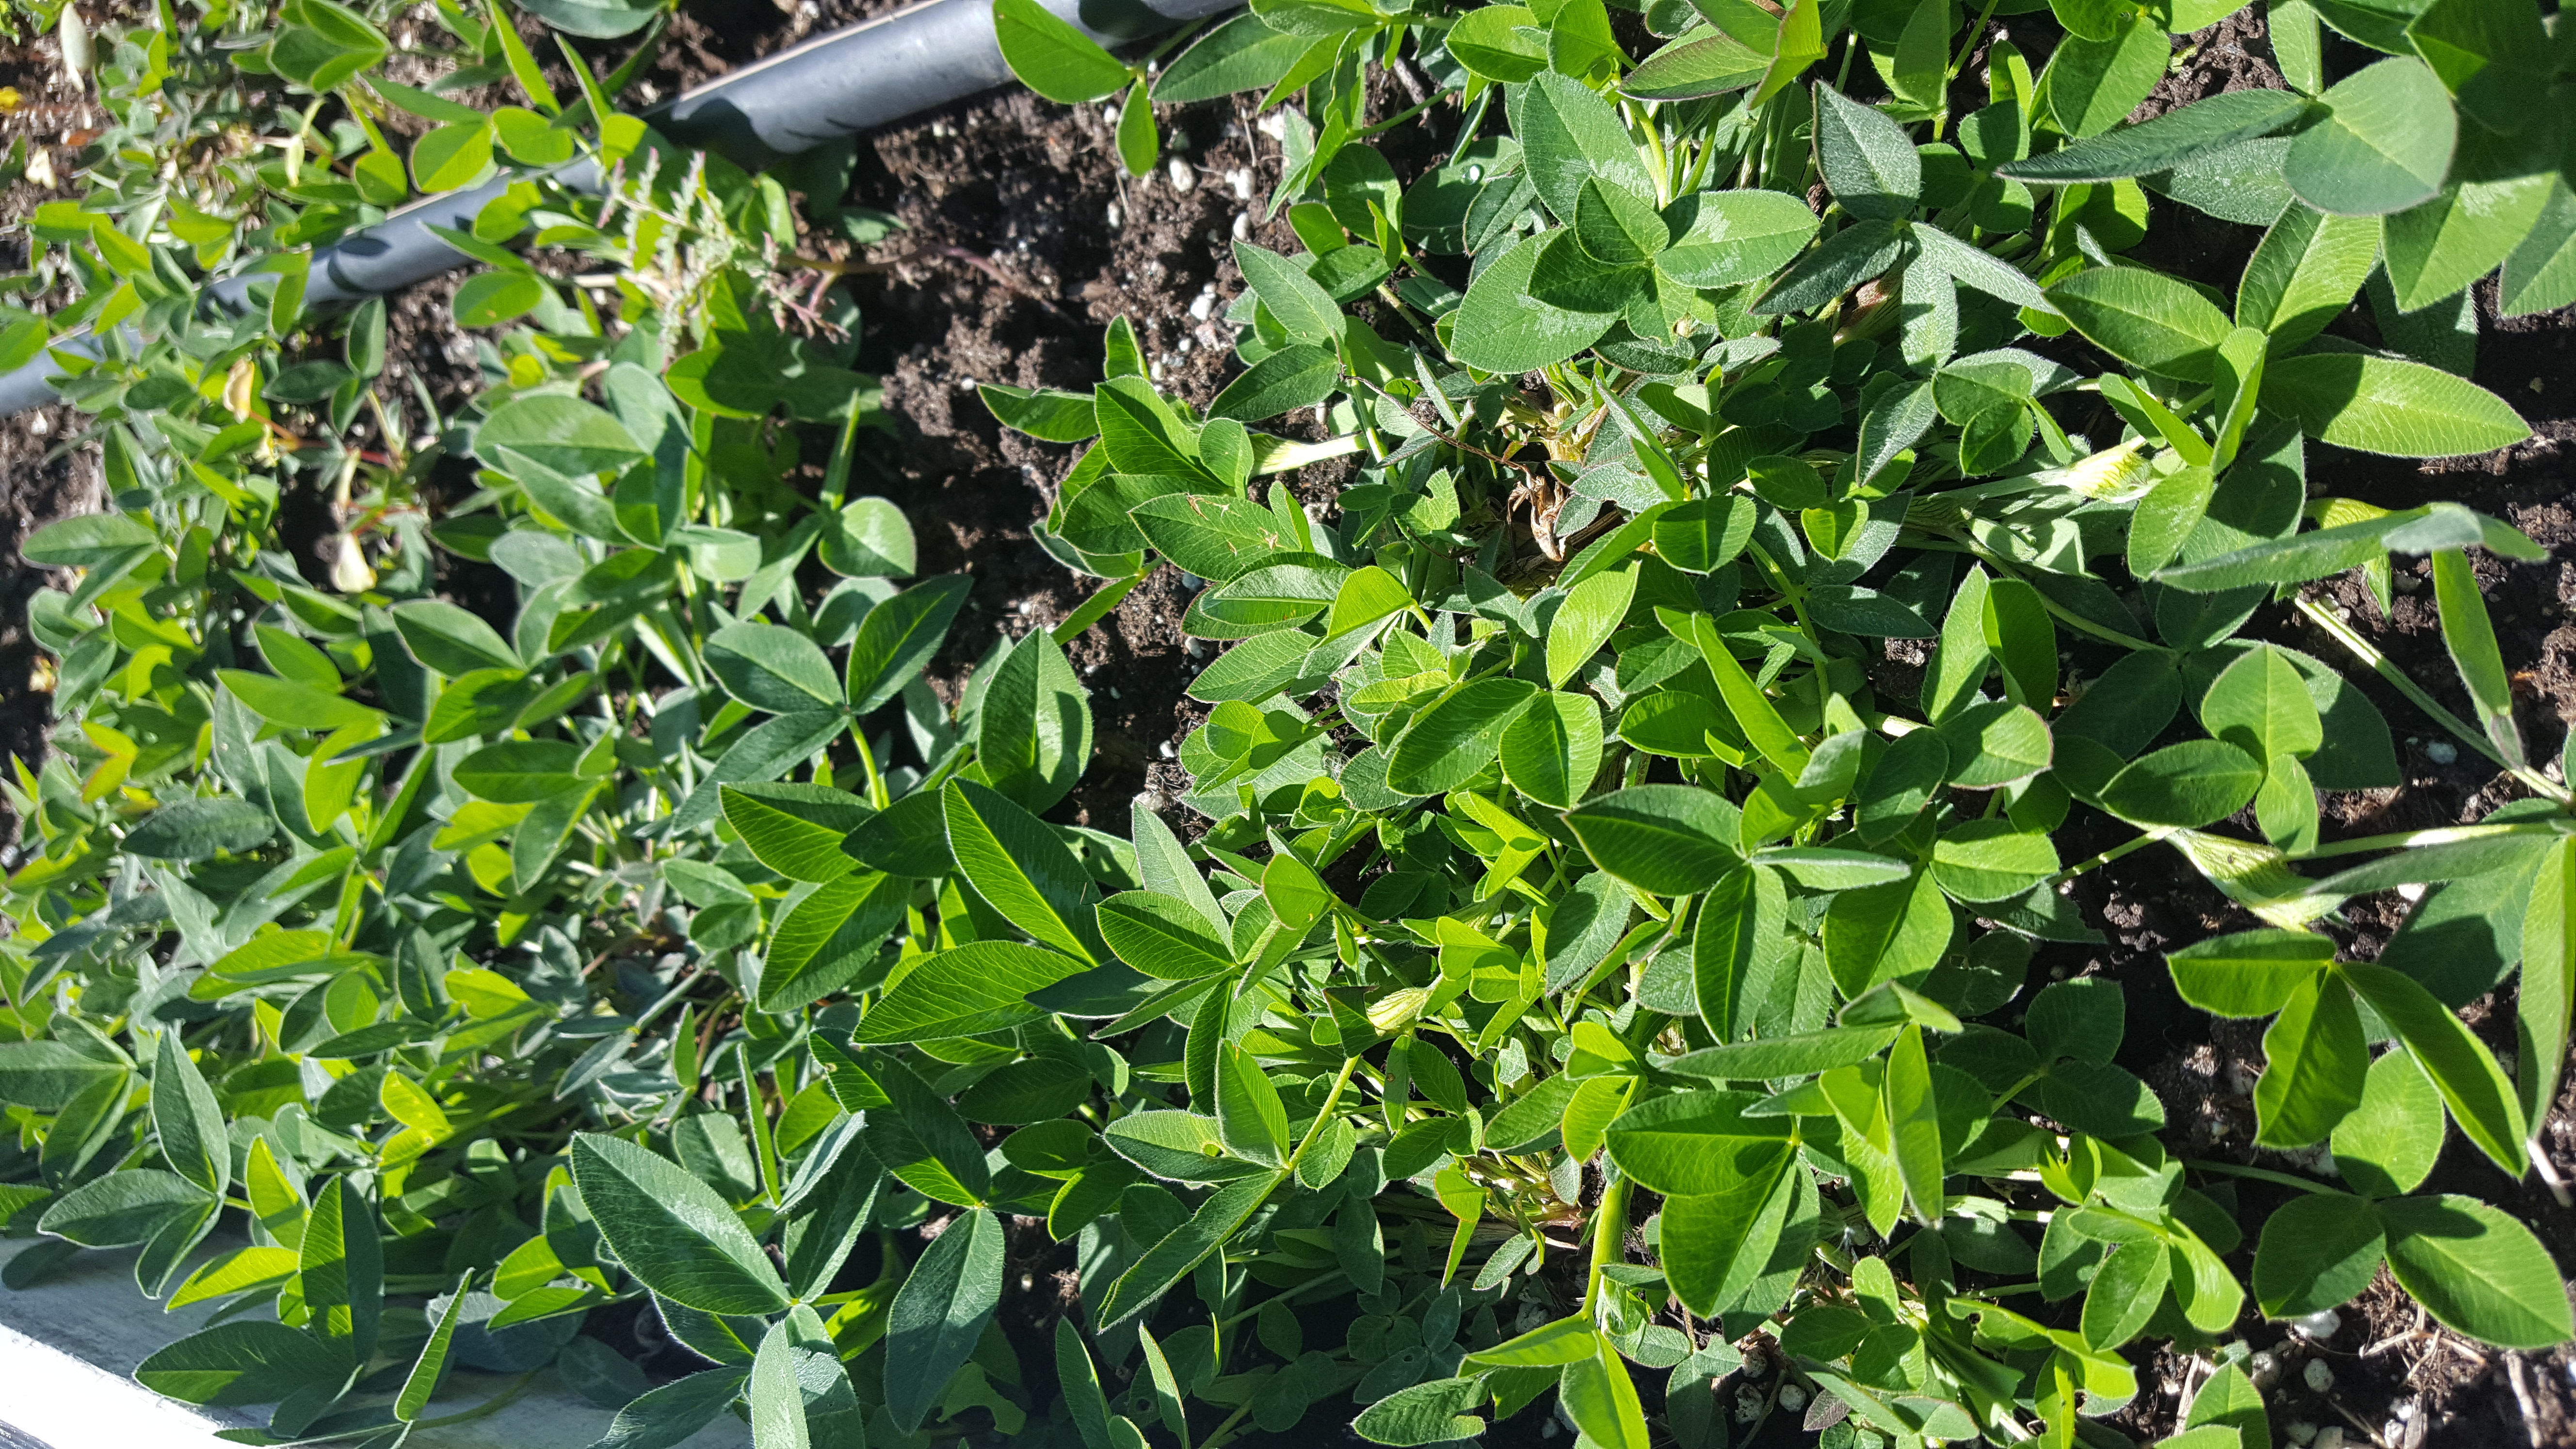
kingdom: Plantae
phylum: Tracheophyta
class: Magnoliopsida
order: Fabales
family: Fabaceae
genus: Trifolium
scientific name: Trifolium medium
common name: Zigzag clover
